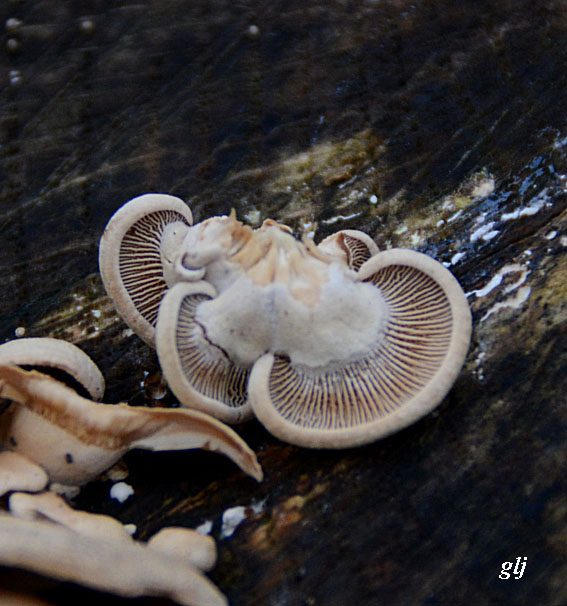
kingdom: Fungi
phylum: Basidiomycota
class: Agaricomycetes
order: Agaricales
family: Mycenaceae
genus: Panellus
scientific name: Panellus stipticus
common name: kliddet epaulethat
